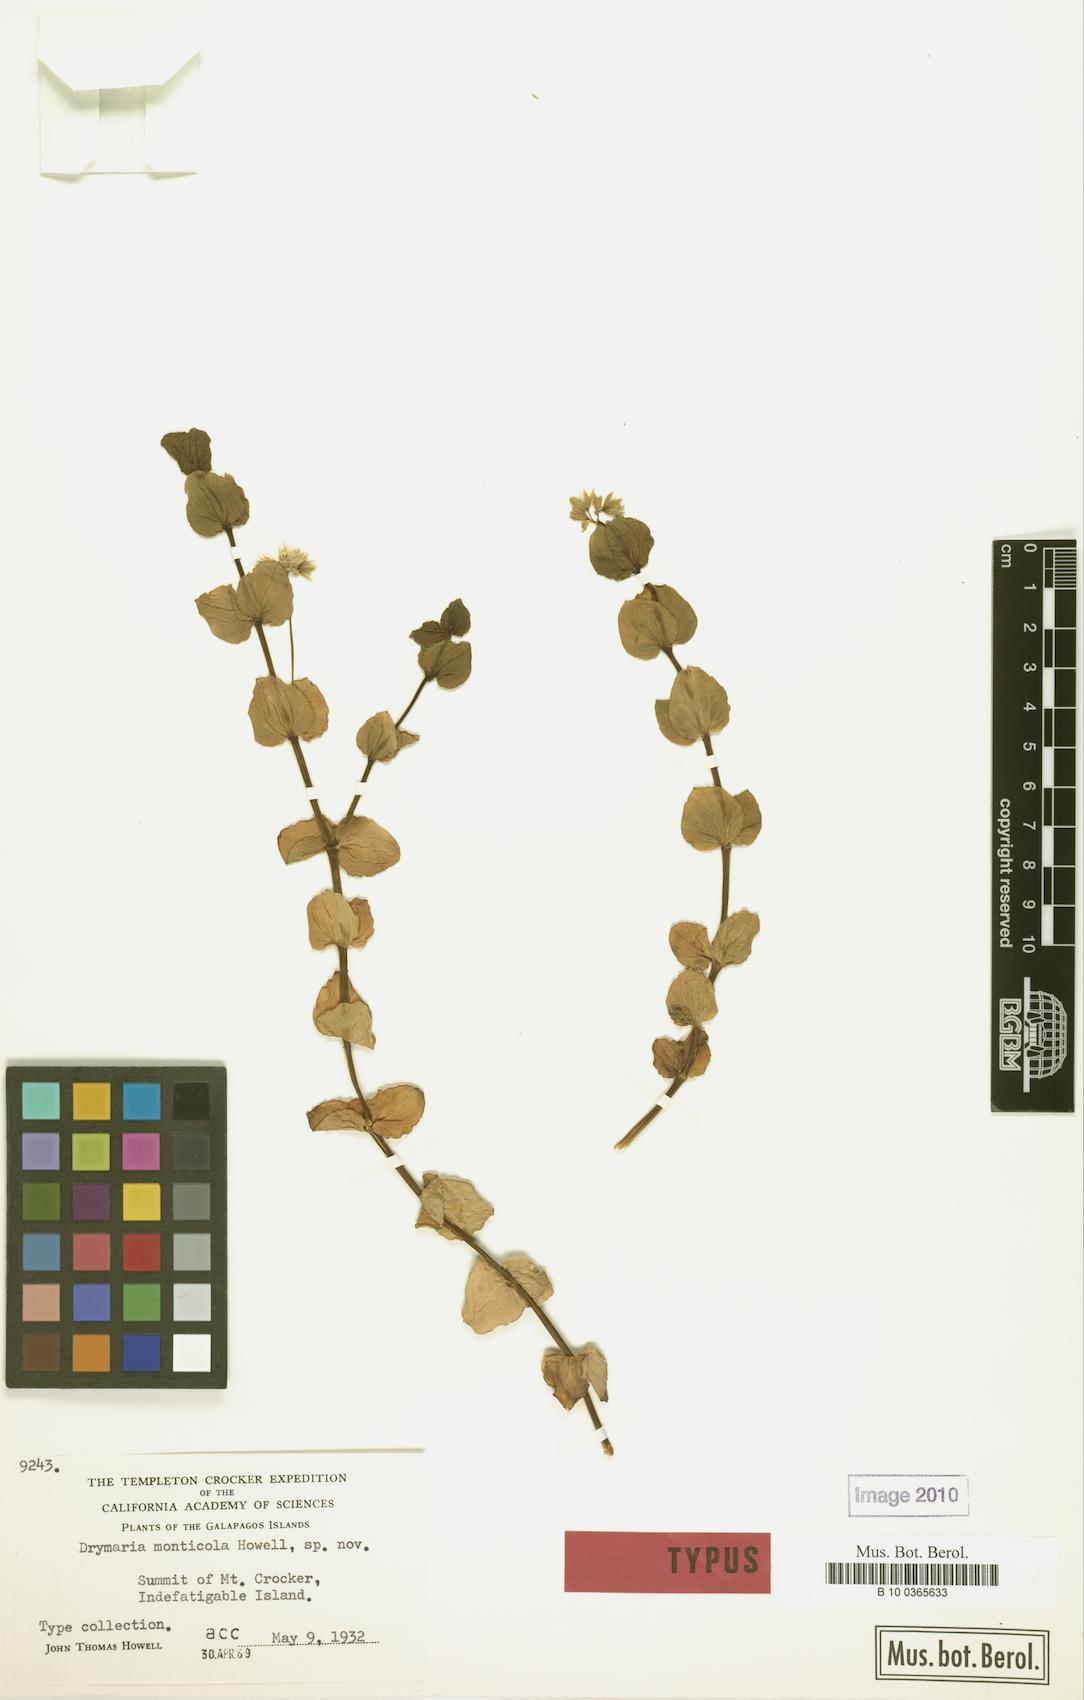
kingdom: Plantae
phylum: Tracheophyta
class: Magnoliopsida
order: Caryophyllales
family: Caryophyllaceae
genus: Drymaria
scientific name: Drymaria monticola
